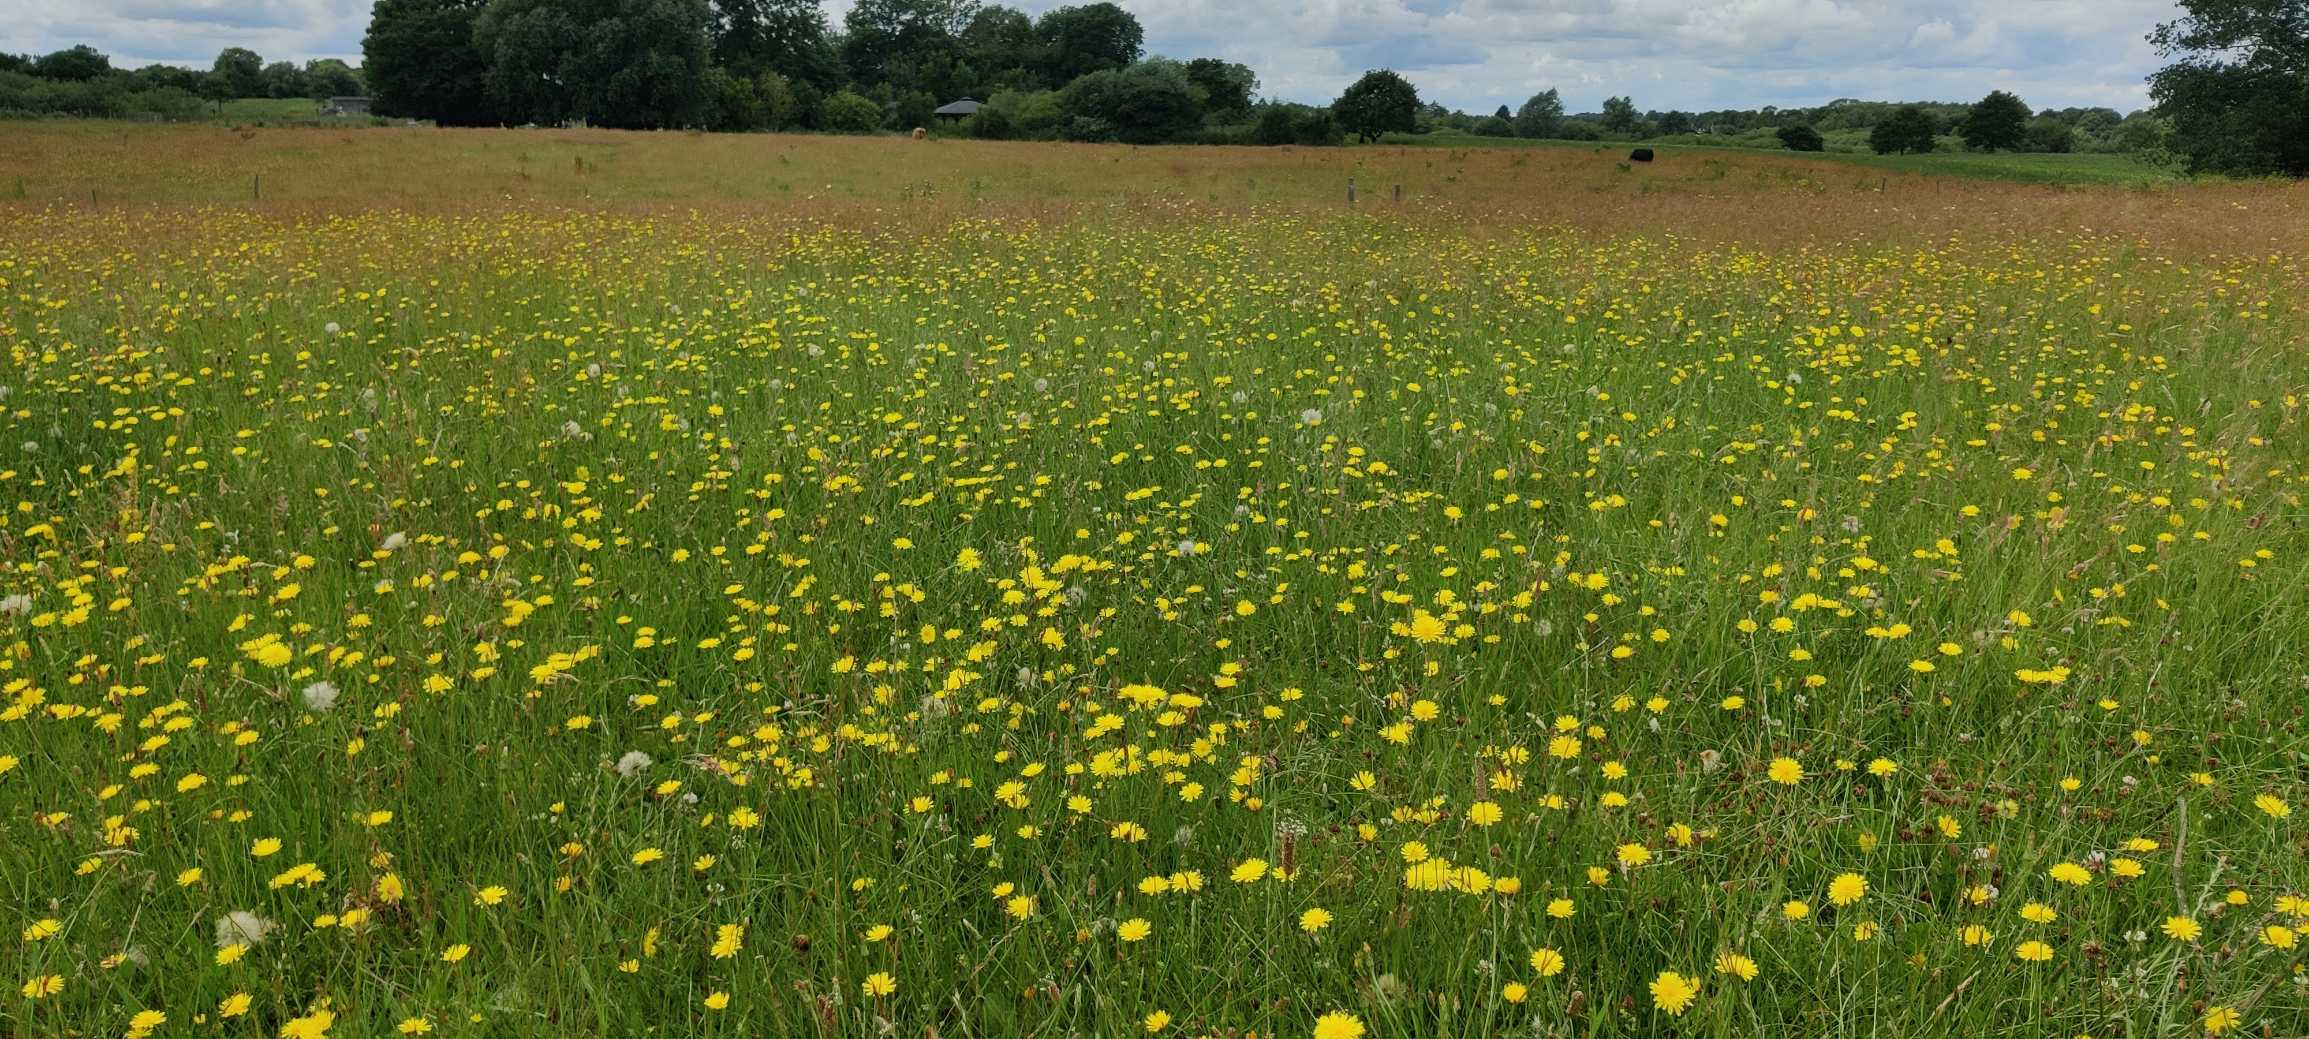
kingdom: Plantae
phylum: Tracheophyta
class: Magnoliopsida
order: Asterales
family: Asteraceae
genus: Hypochaeris
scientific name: Hypochaeris radicata
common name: Almindelig kongepen
